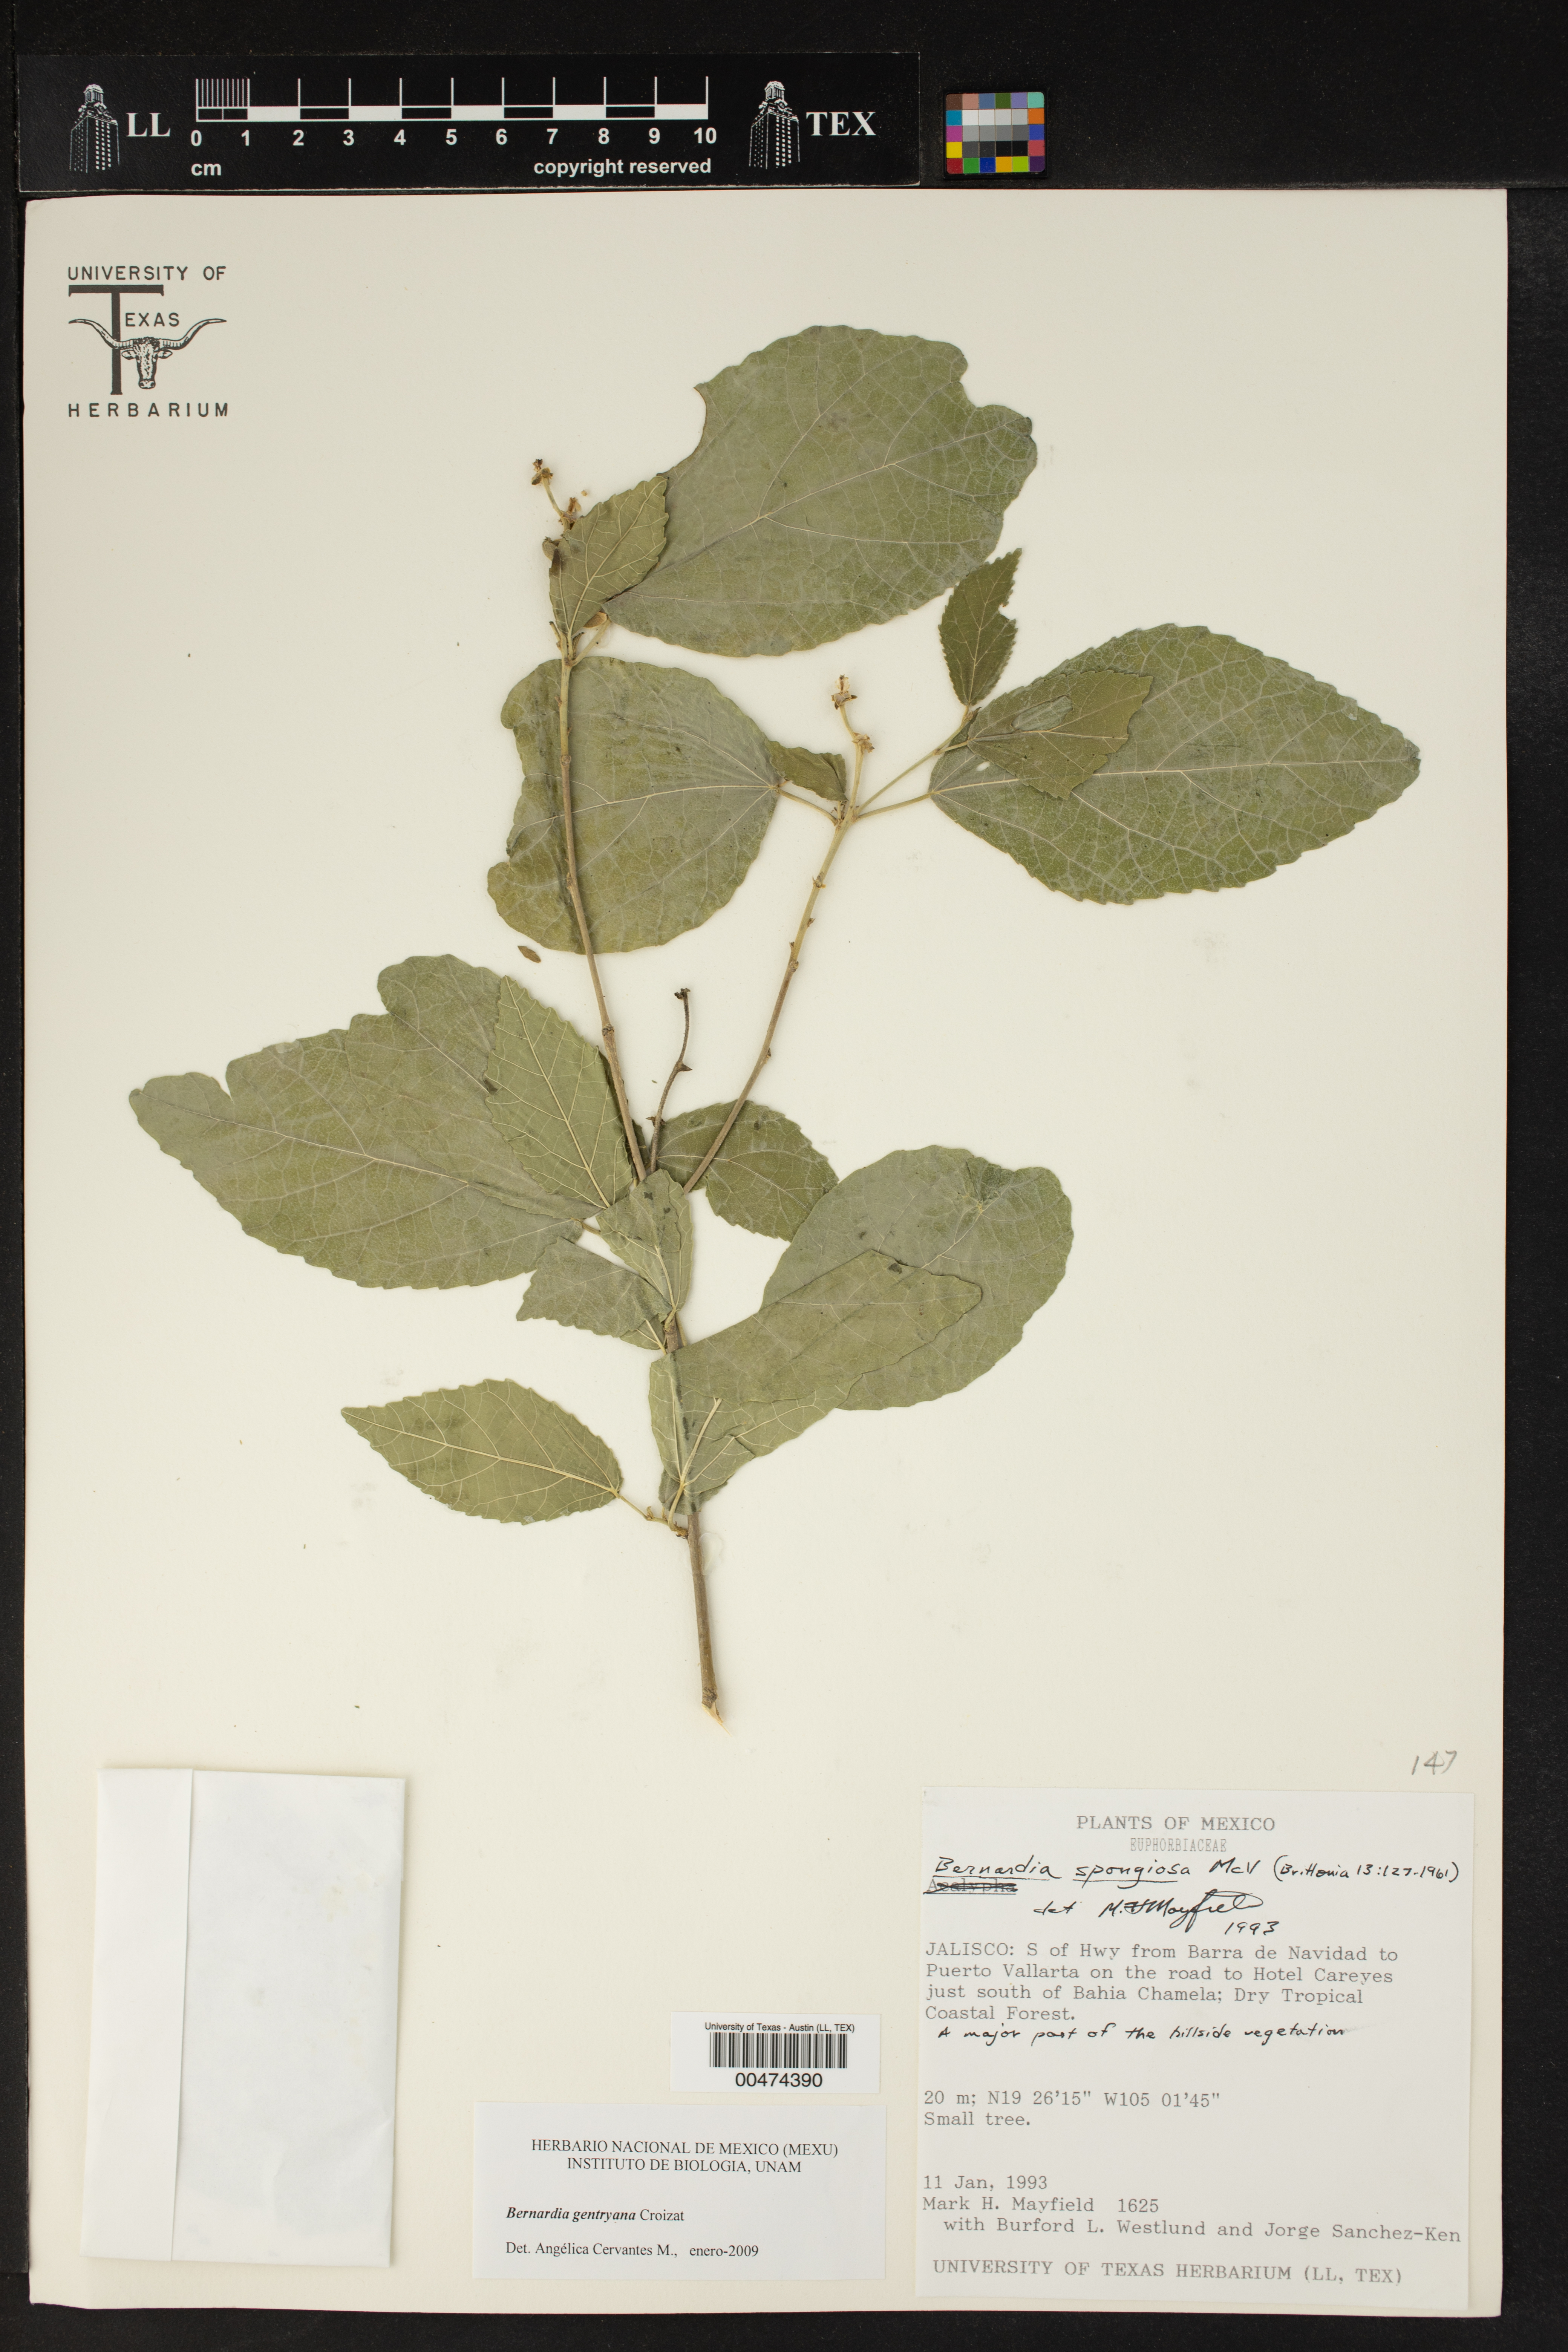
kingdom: Plantae
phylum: Tracheophyta
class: Magnoliopsida
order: Malpighiales
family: Euphorbiaceae
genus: Bernardia
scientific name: Bernardia gentryana
